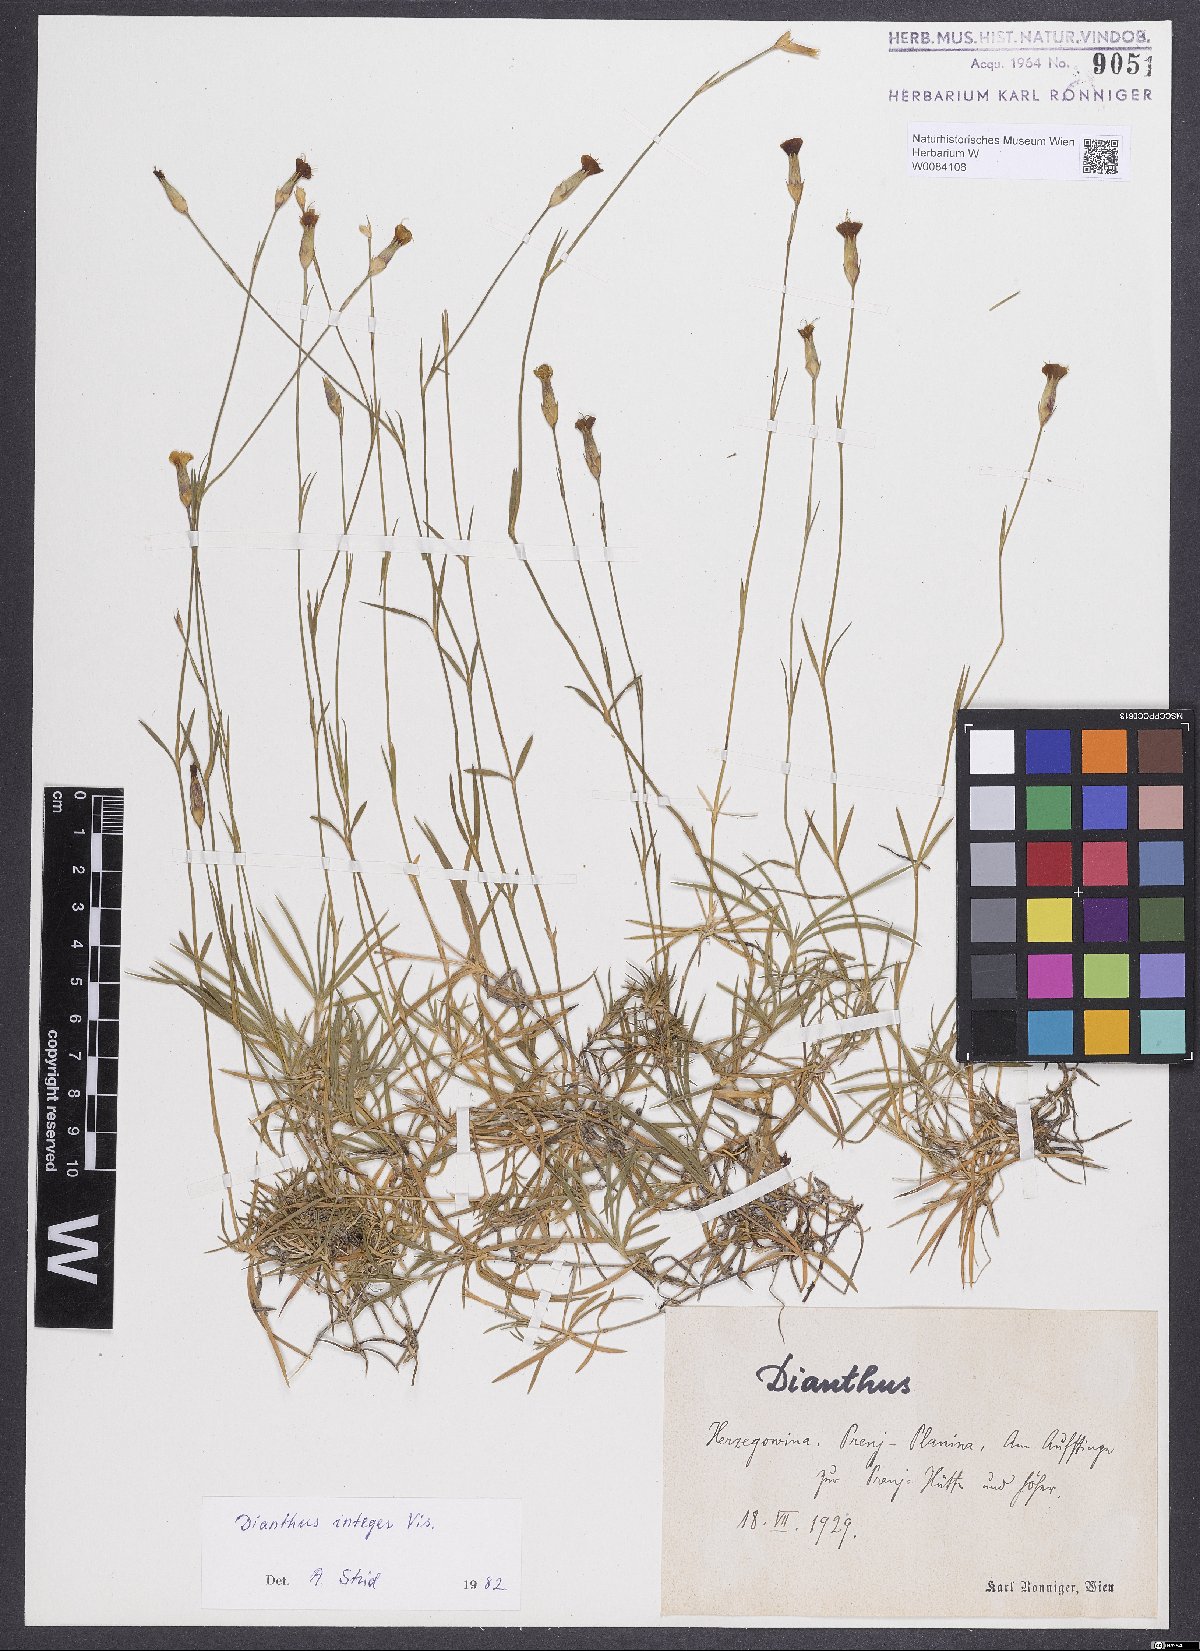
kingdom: Plantae
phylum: Tracheophyta
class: Magnoliopsida
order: Caryophyllales
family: Caryophyllaceae
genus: Dianthus
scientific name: Dianthus integer
